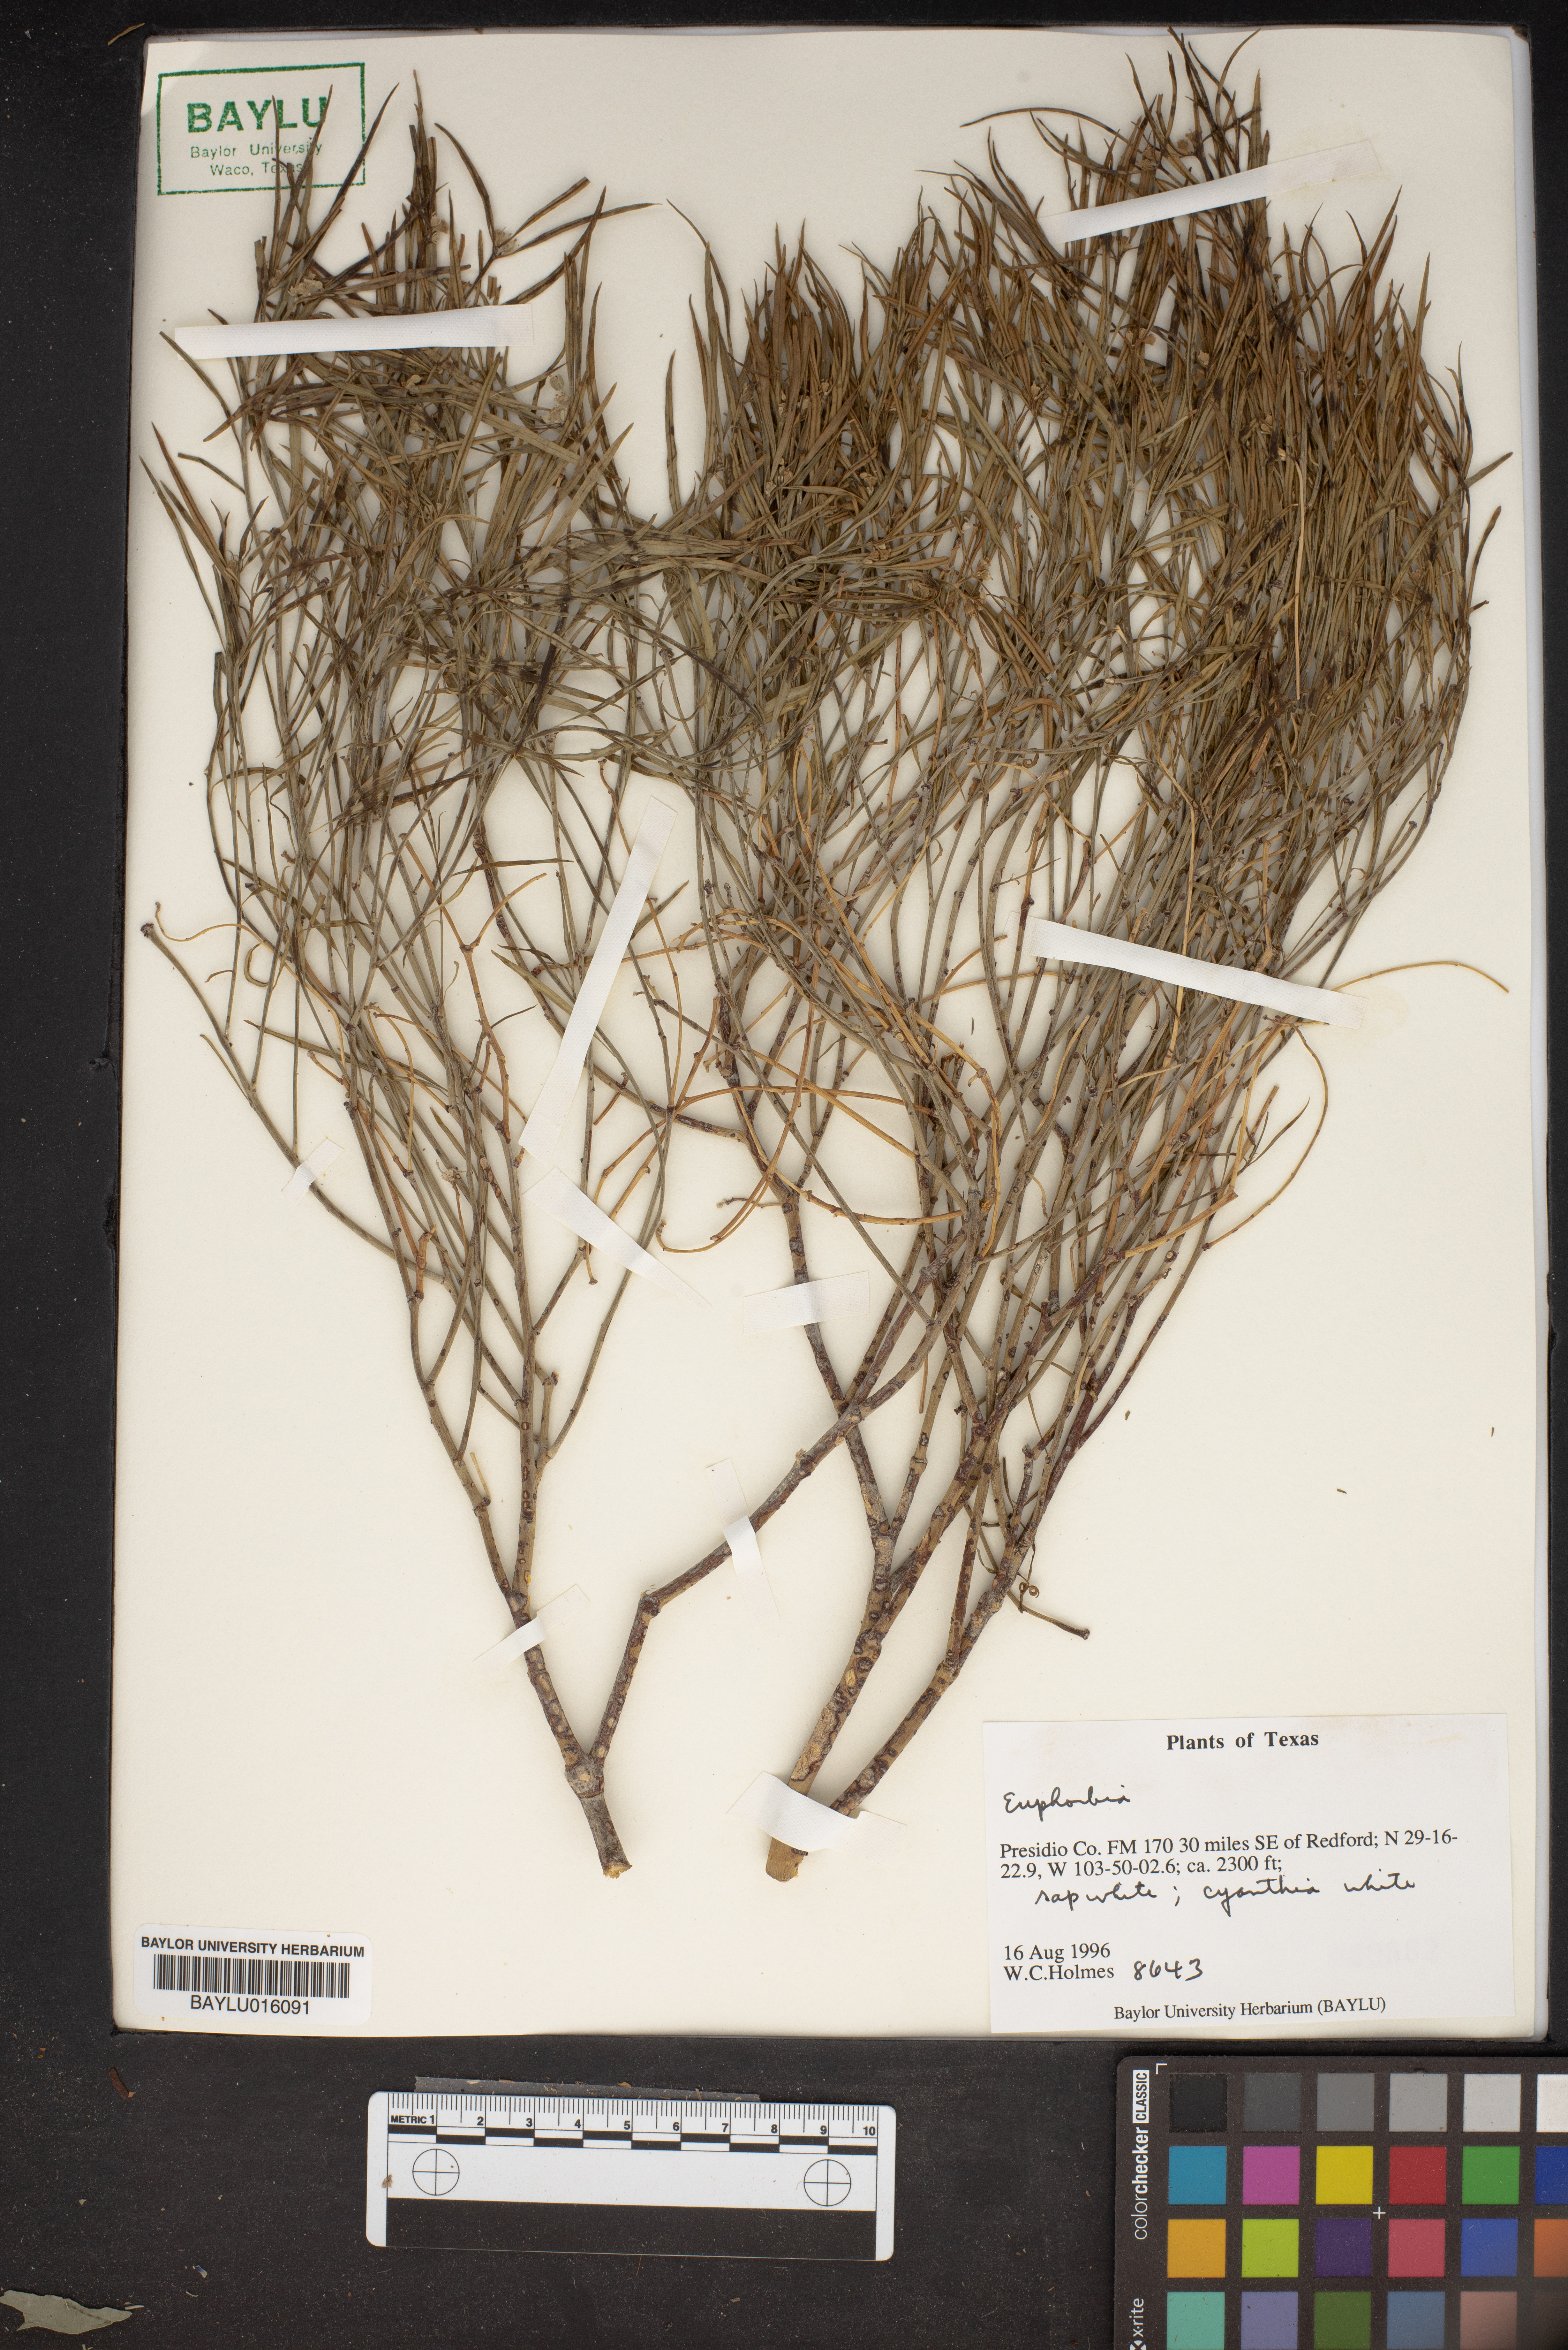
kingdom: Plantae
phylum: Tracheophyta
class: Magnoliopsida
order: Malpighiales
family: Euphorbiaceae
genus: Euphorbia
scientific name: Euphorbia
